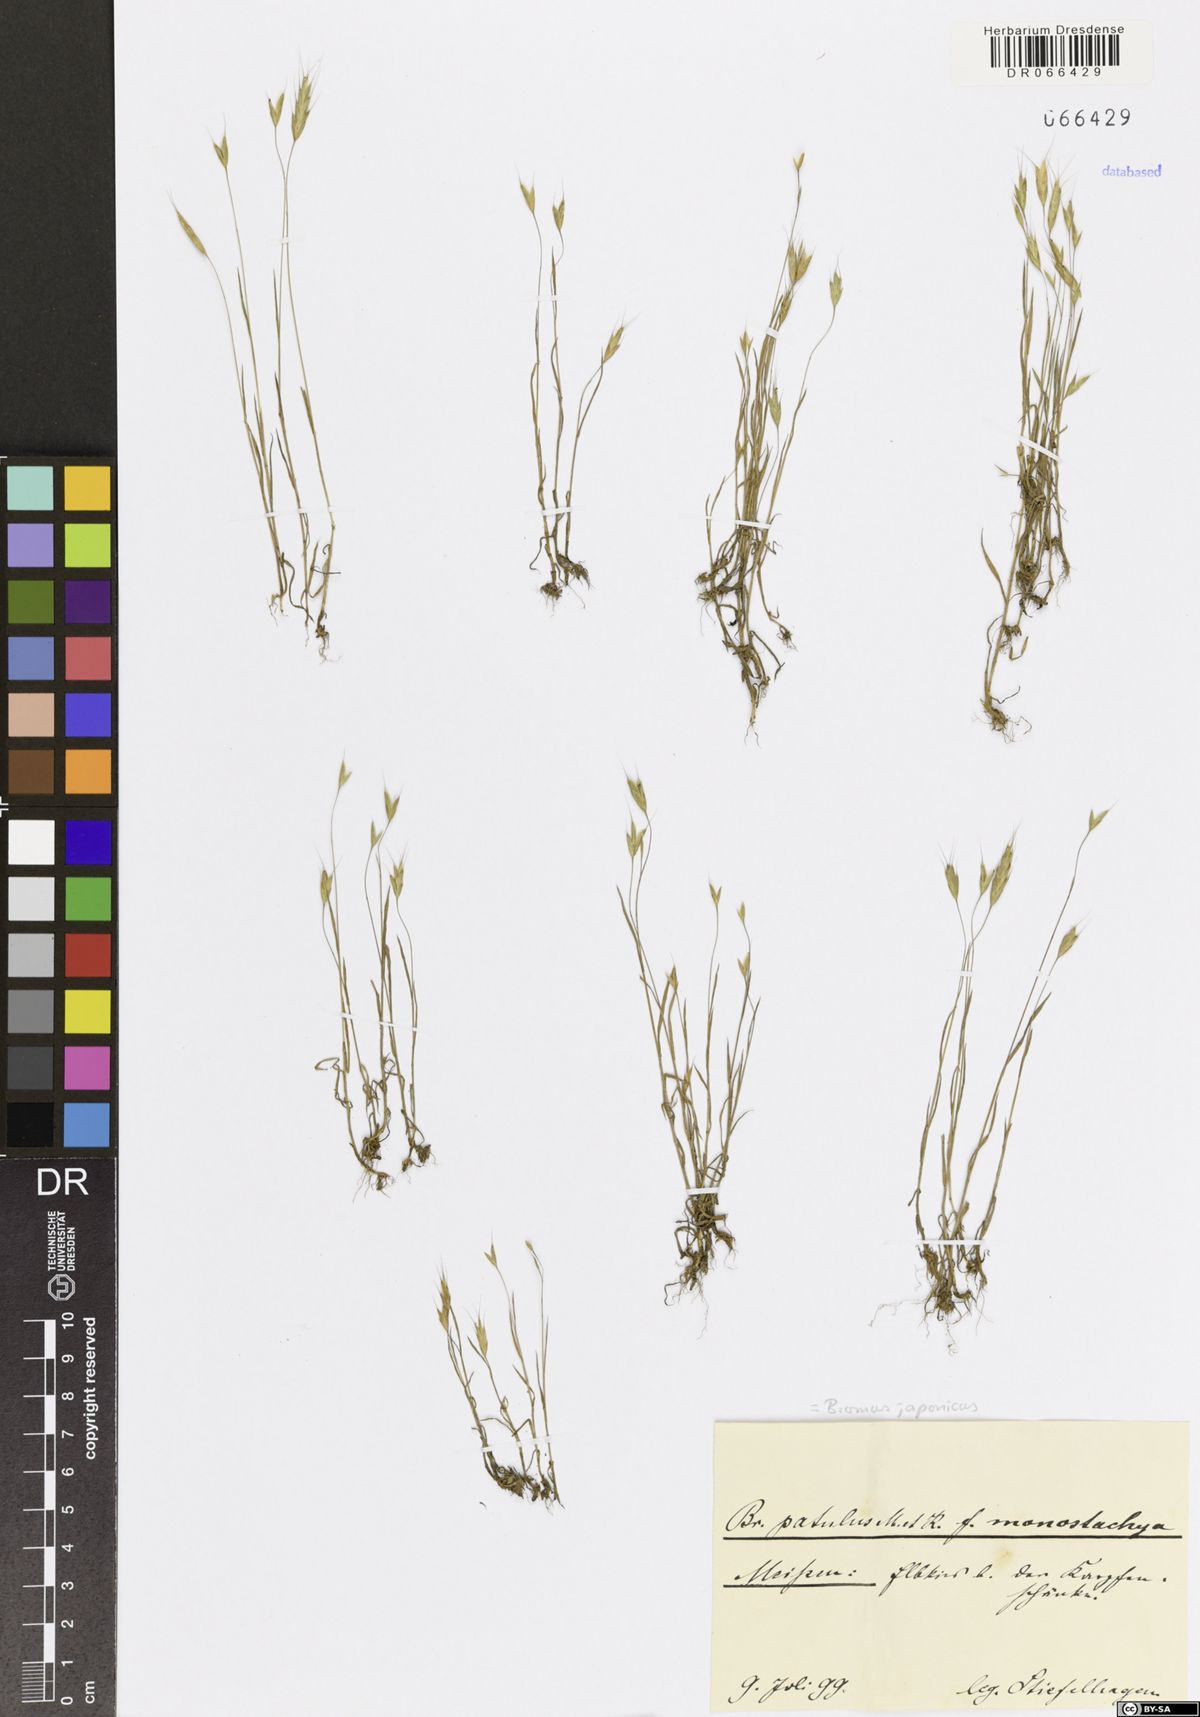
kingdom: Plantae
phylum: Tracheophyta
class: Liliopsida
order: Poales
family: Poaceae
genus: Bromus
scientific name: Bromus japonicus
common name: Japanese brome
